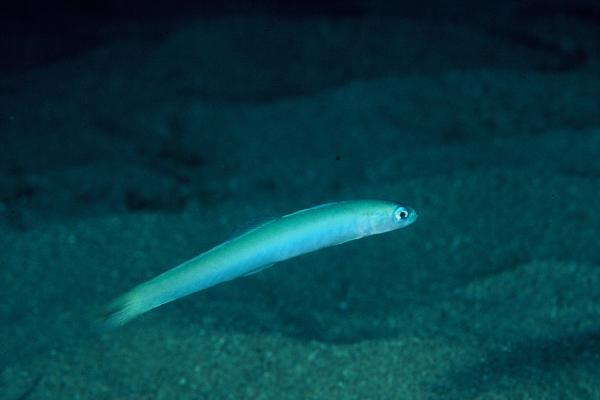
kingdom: Animalia
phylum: Chordata
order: Perciformes
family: Microdesmidae
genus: Ptereleotris
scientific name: Ptereleotris heteroptera
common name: Blacktail goby
